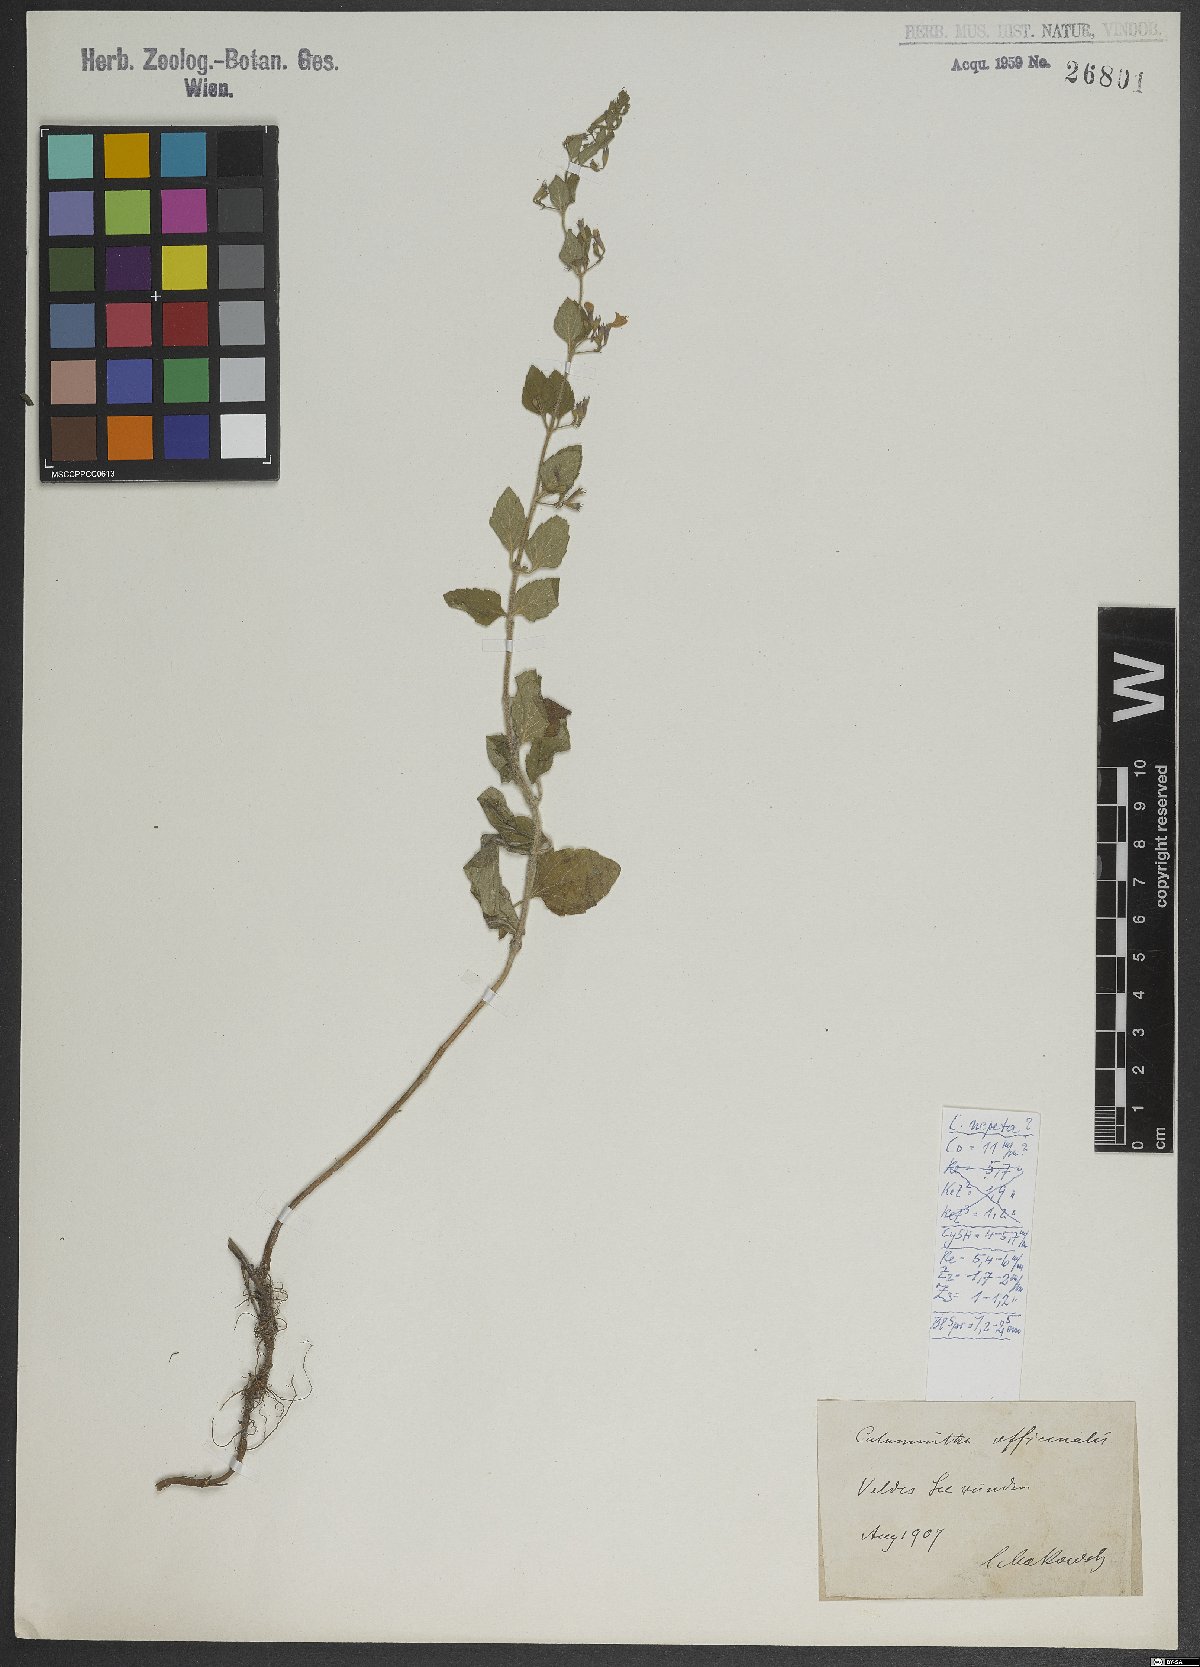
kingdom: Plantae
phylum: Tracheophyta
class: Magnoliopsida
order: Lamiales
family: Lamiaceae
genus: Clinopodium
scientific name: Clinopodium nepeta
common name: Lesser calamint
